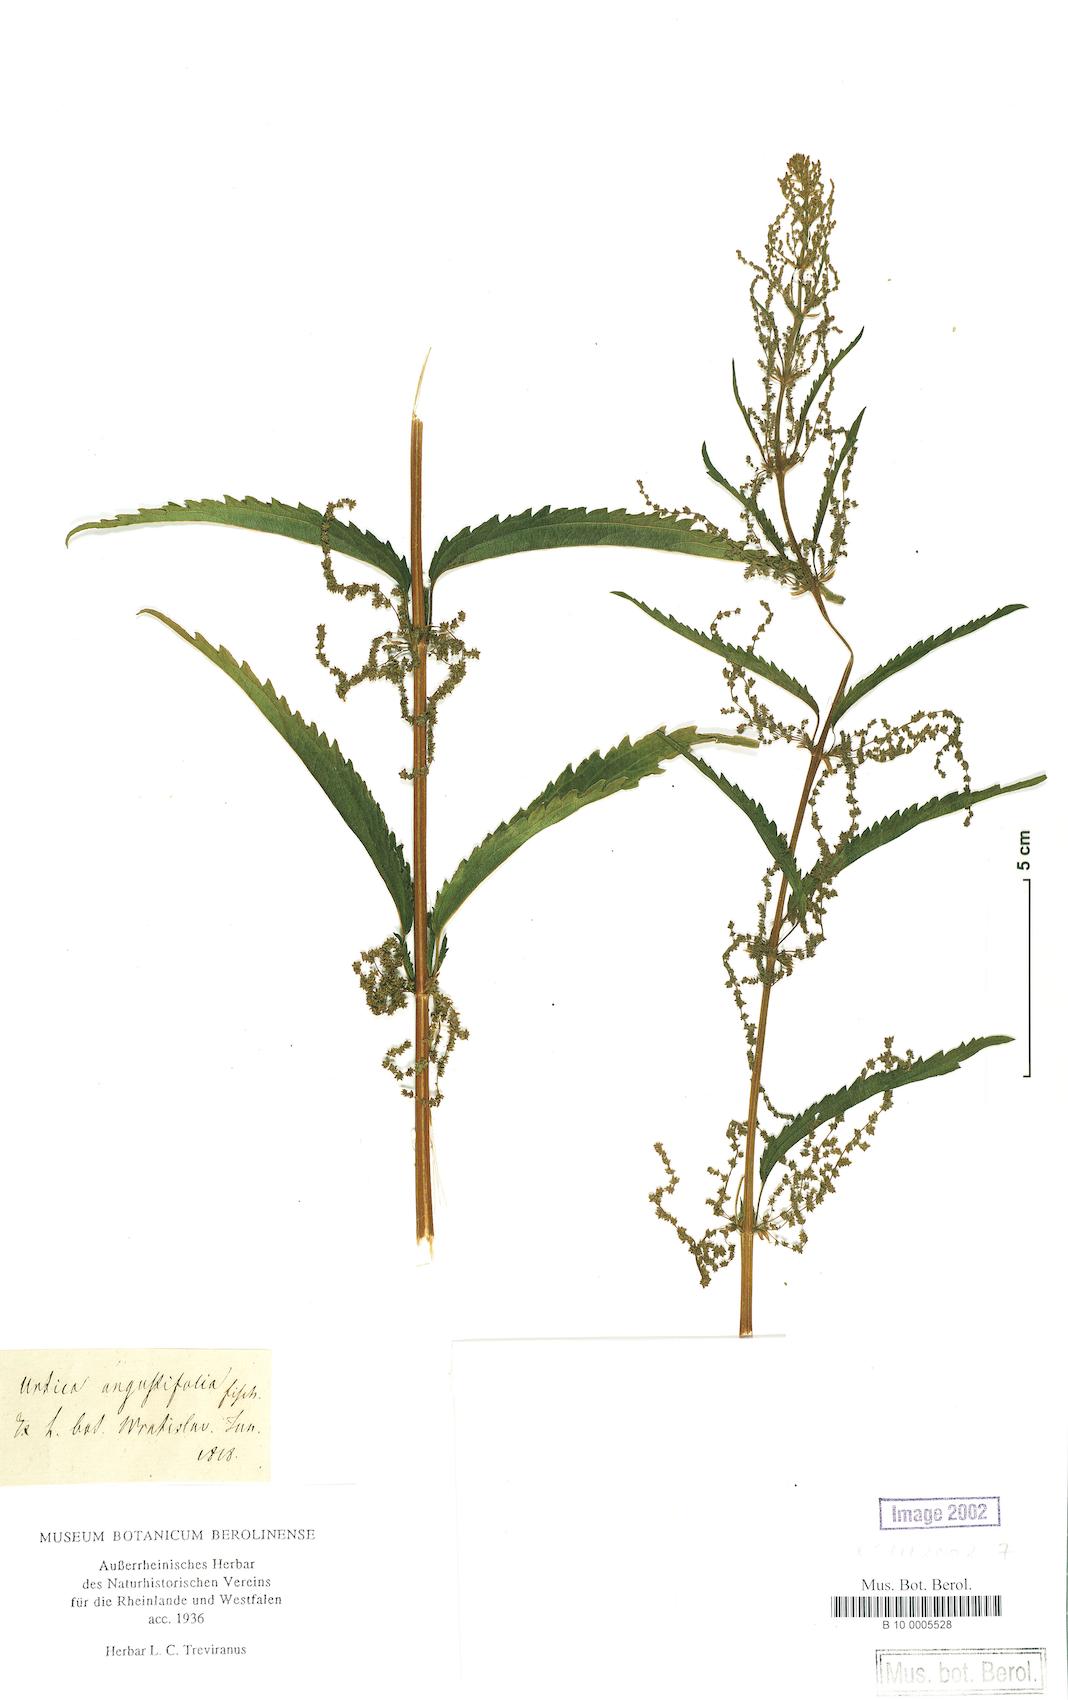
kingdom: Plantae
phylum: Tracheophyta
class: Magnoliopsida
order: Rosales
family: Urticaceae
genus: Urtica
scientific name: Urtica dioica
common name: Common nettle
